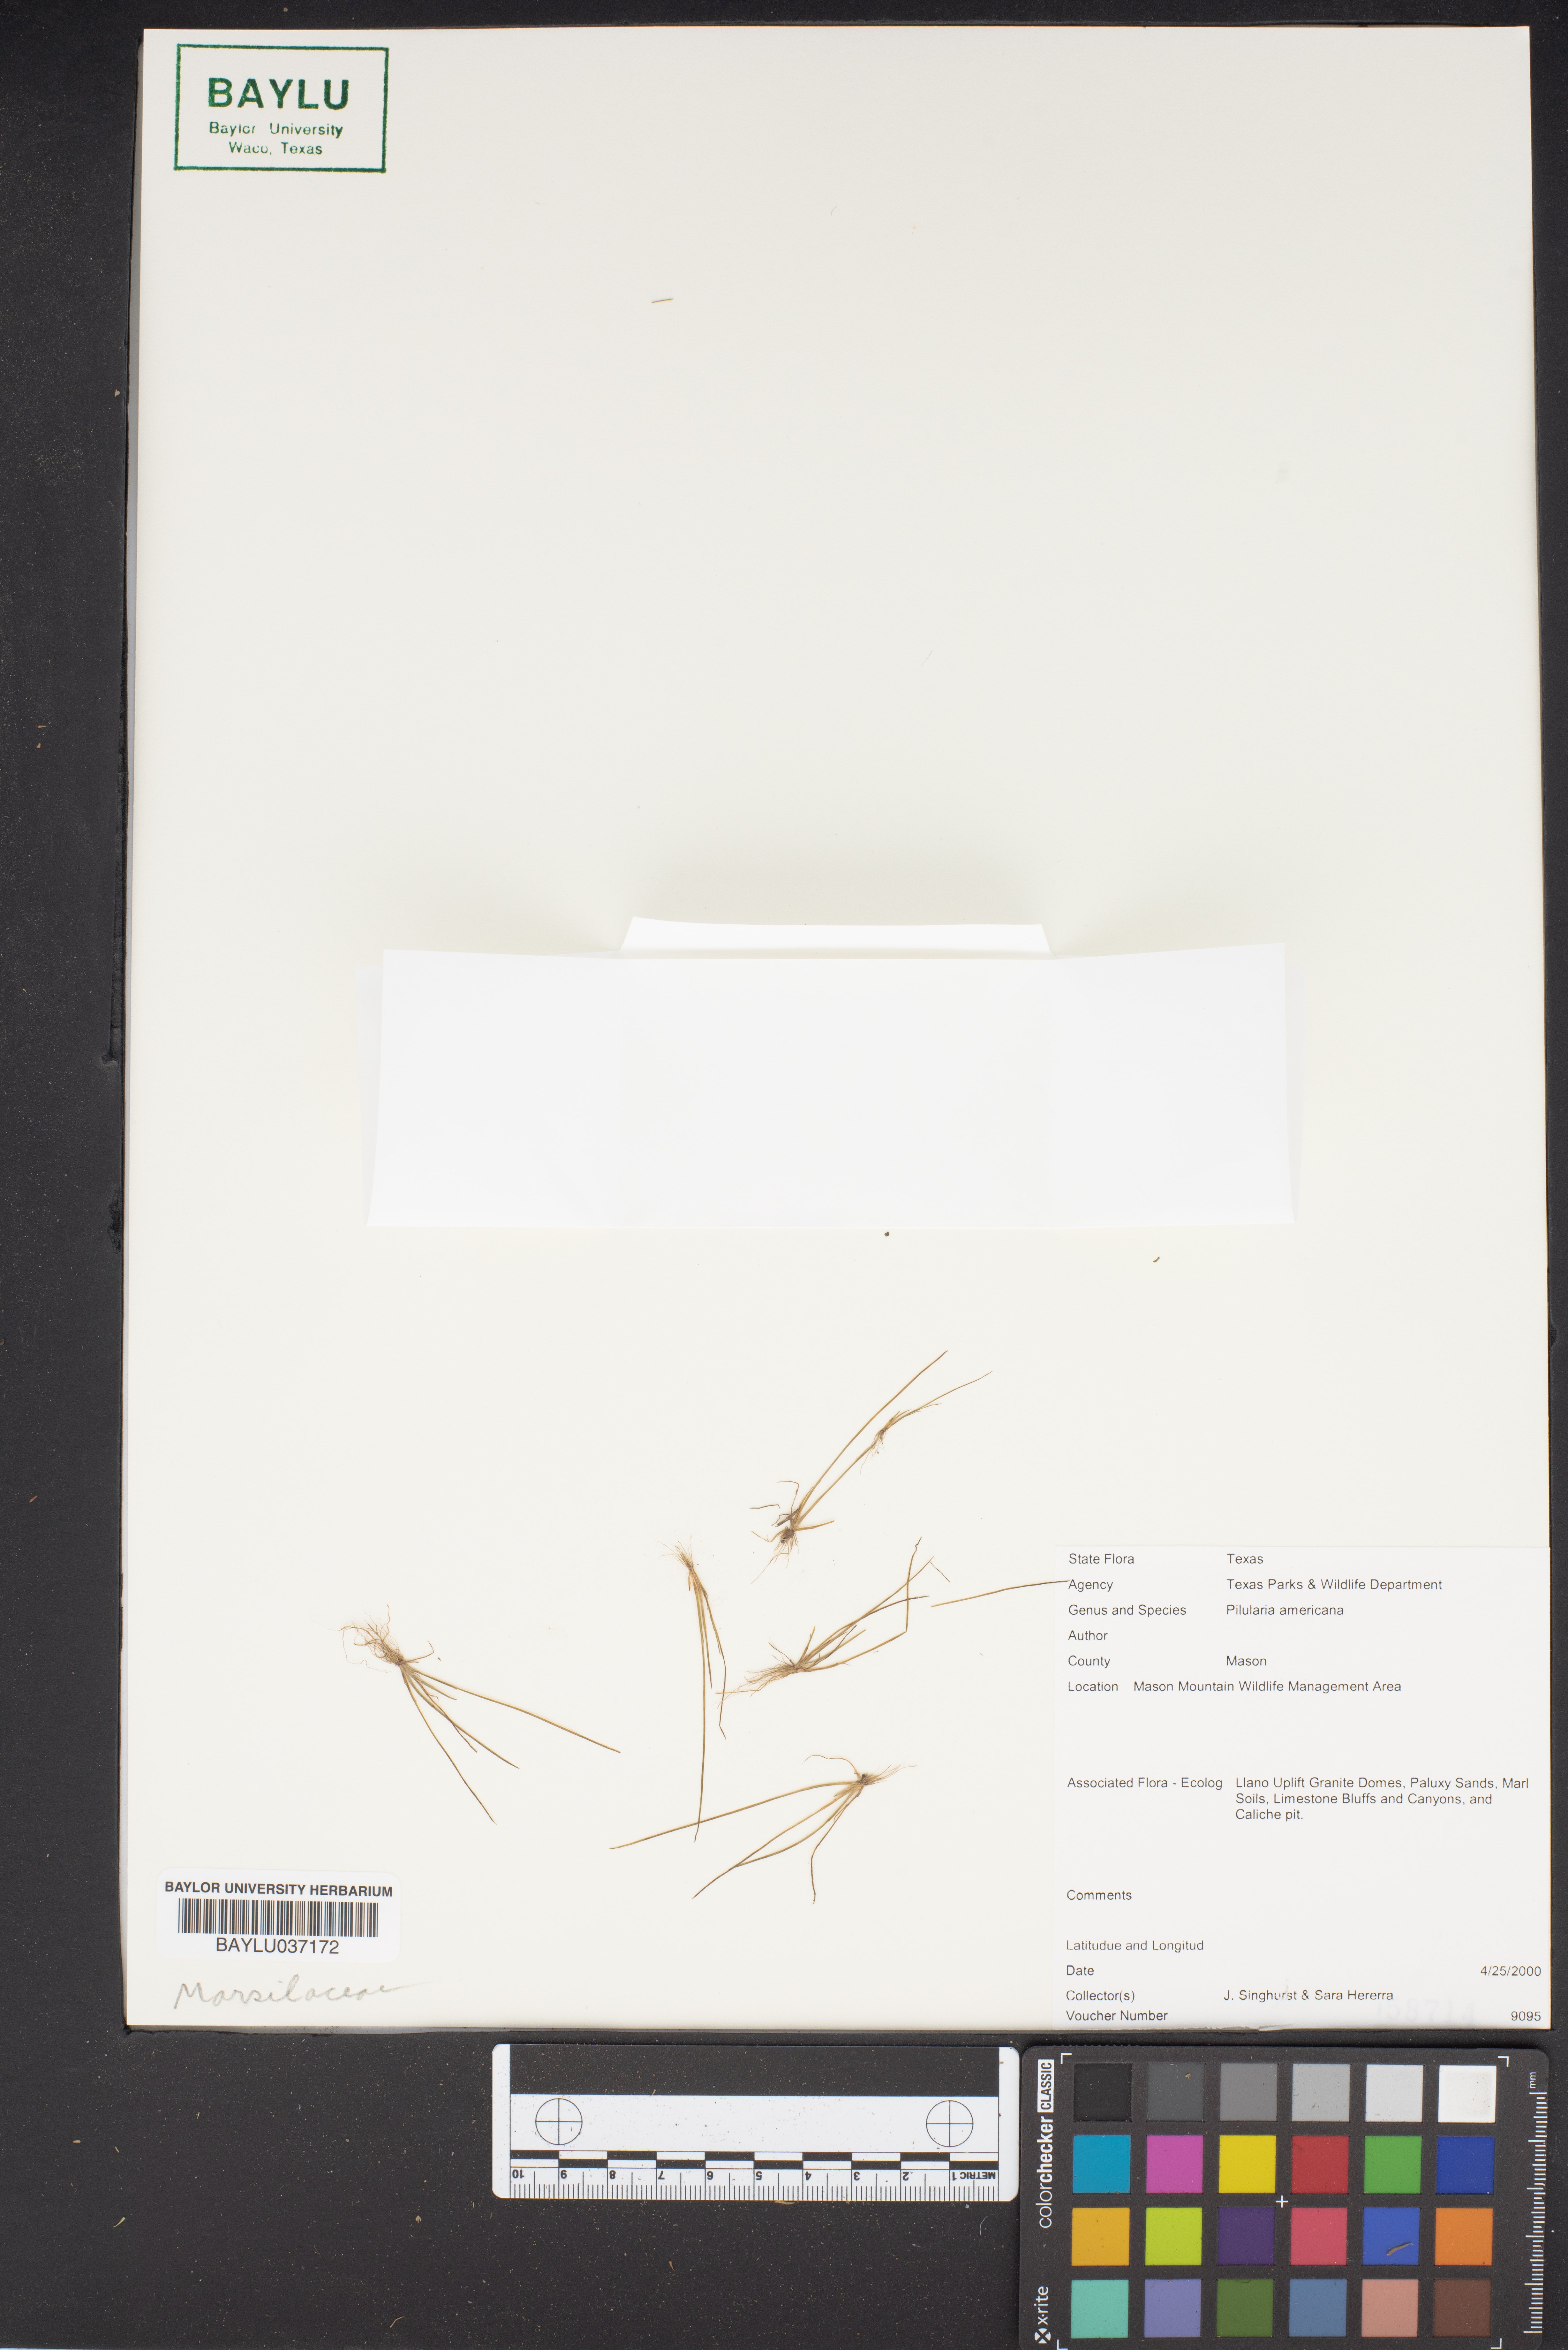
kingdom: Plantae
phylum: Tracheophyta
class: Polypodiopsida
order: Salviniales
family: Marsileaceae
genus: Pilularia
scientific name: Pilularia americana
